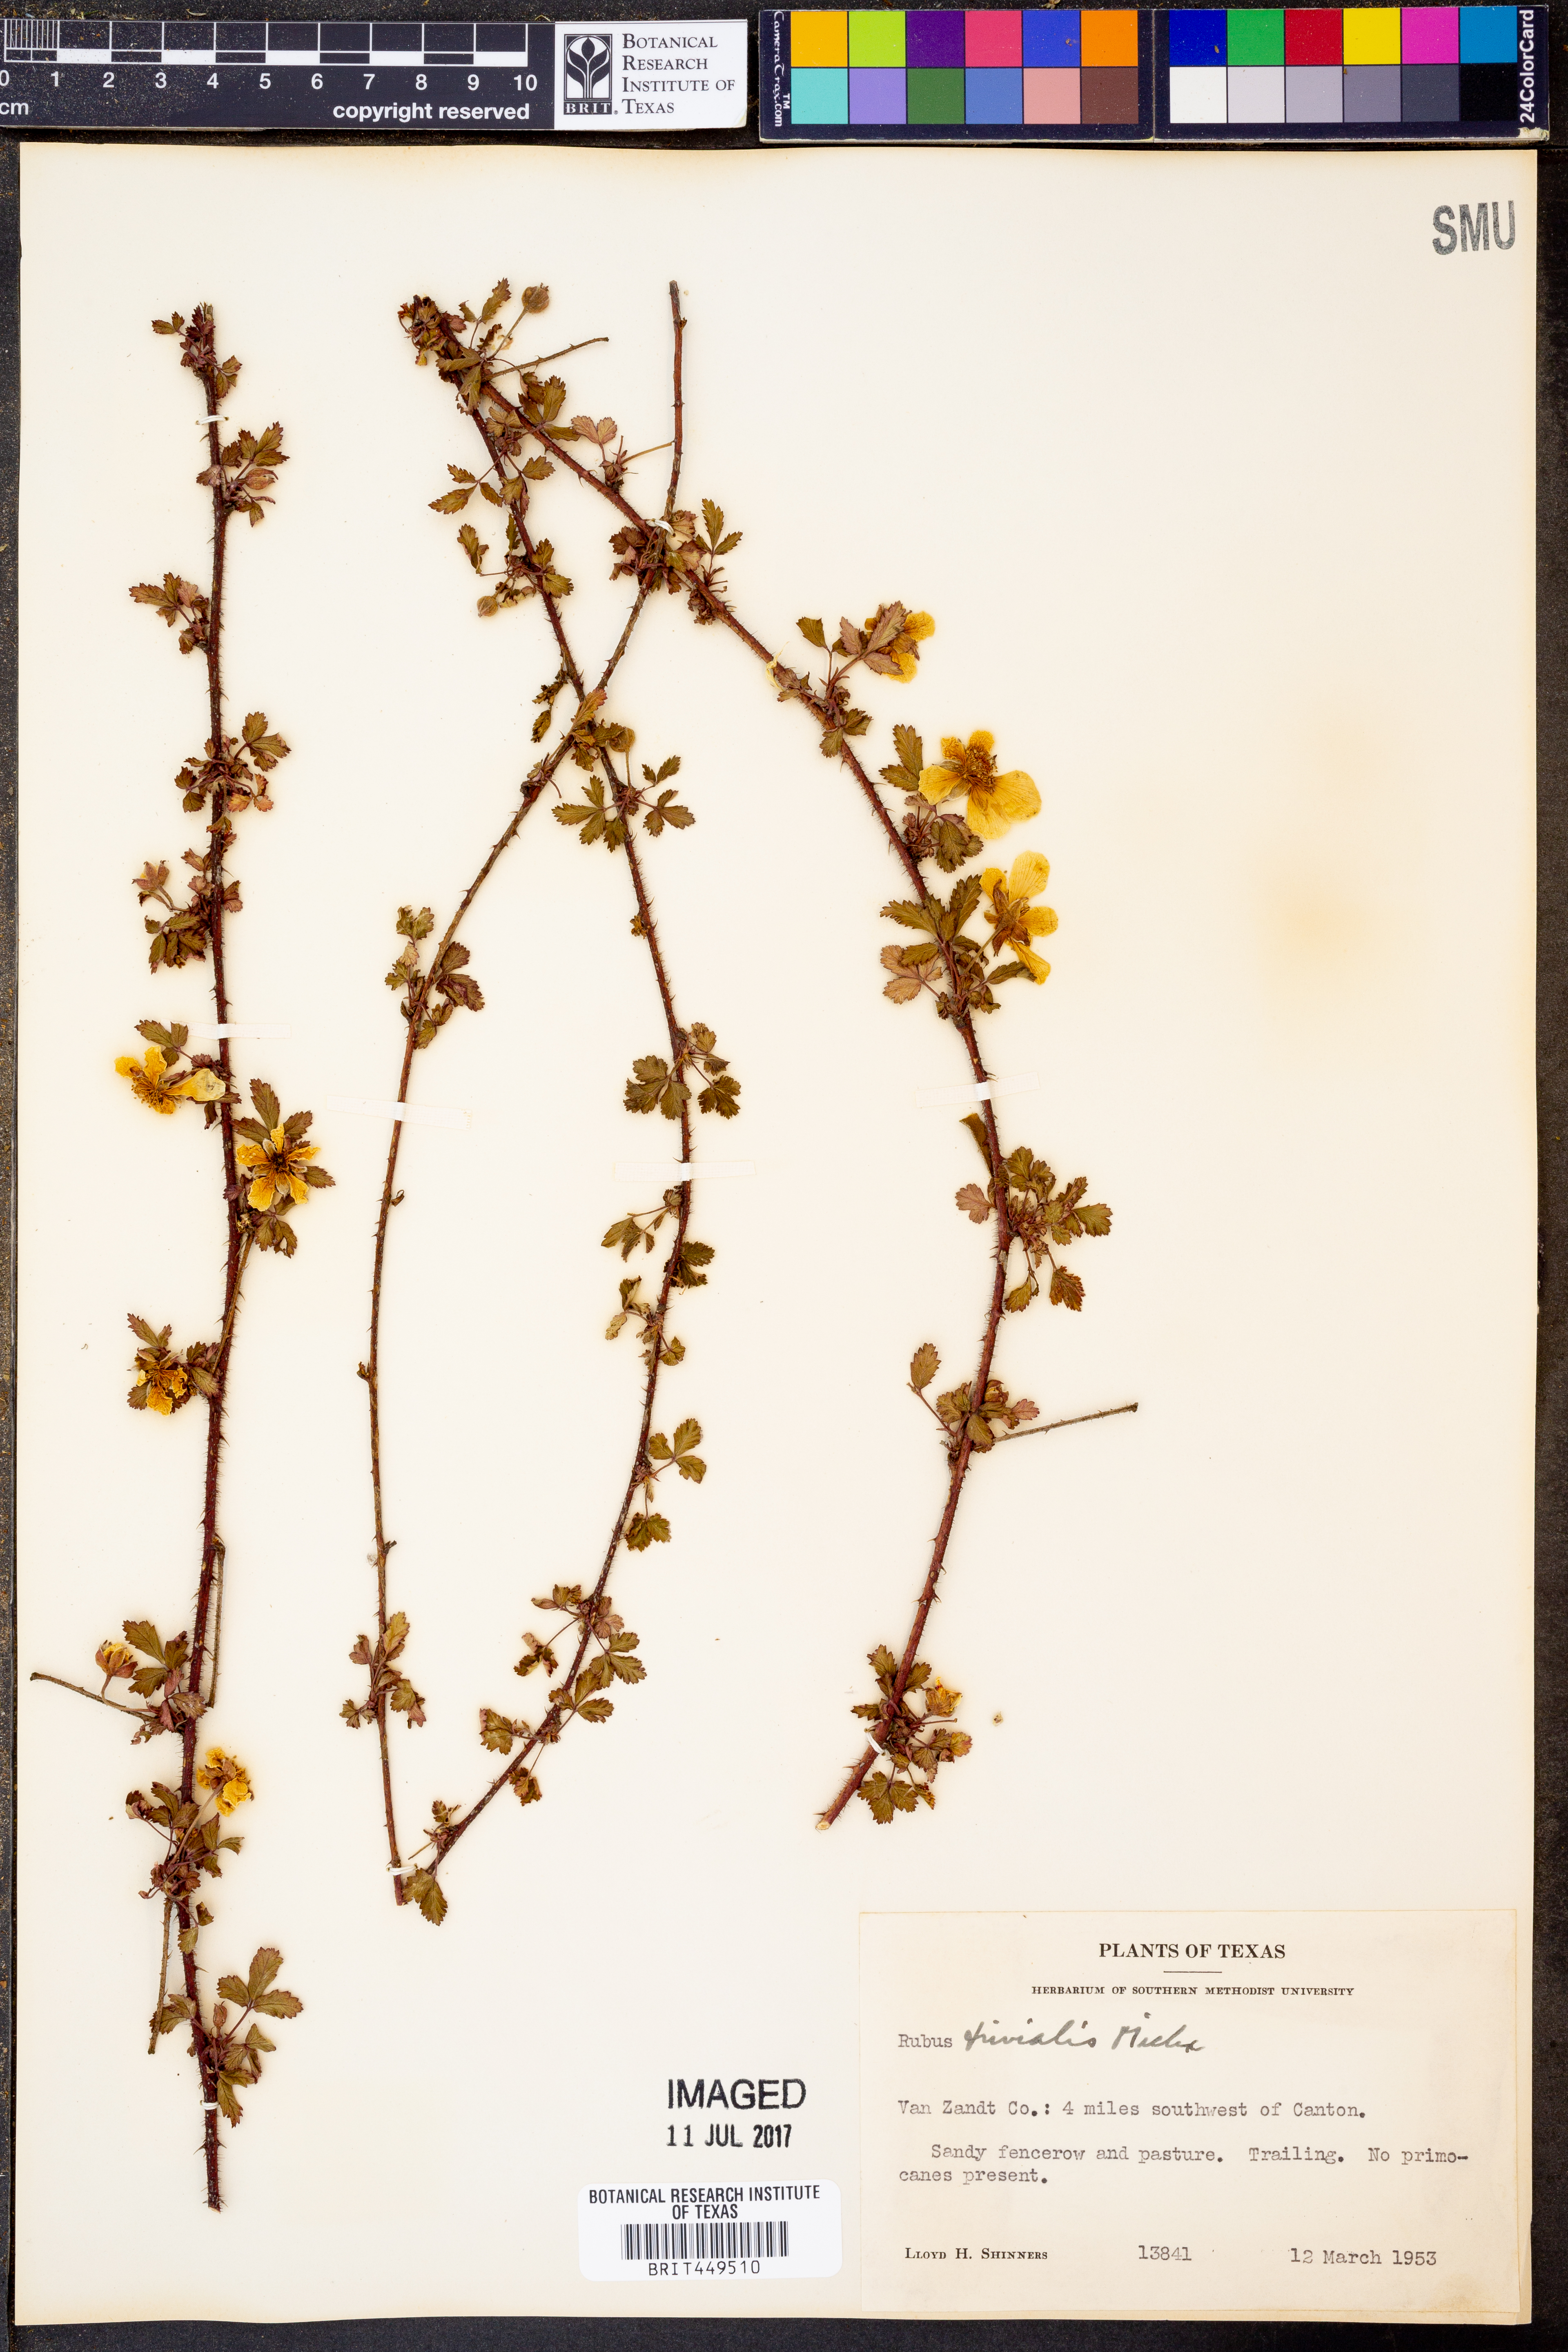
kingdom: Plantae
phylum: Tracheophyta
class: Magnoliopsida
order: Rosales
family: Rosaceae
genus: Rubus
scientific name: Rubus trivialis
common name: Southern dewberry
